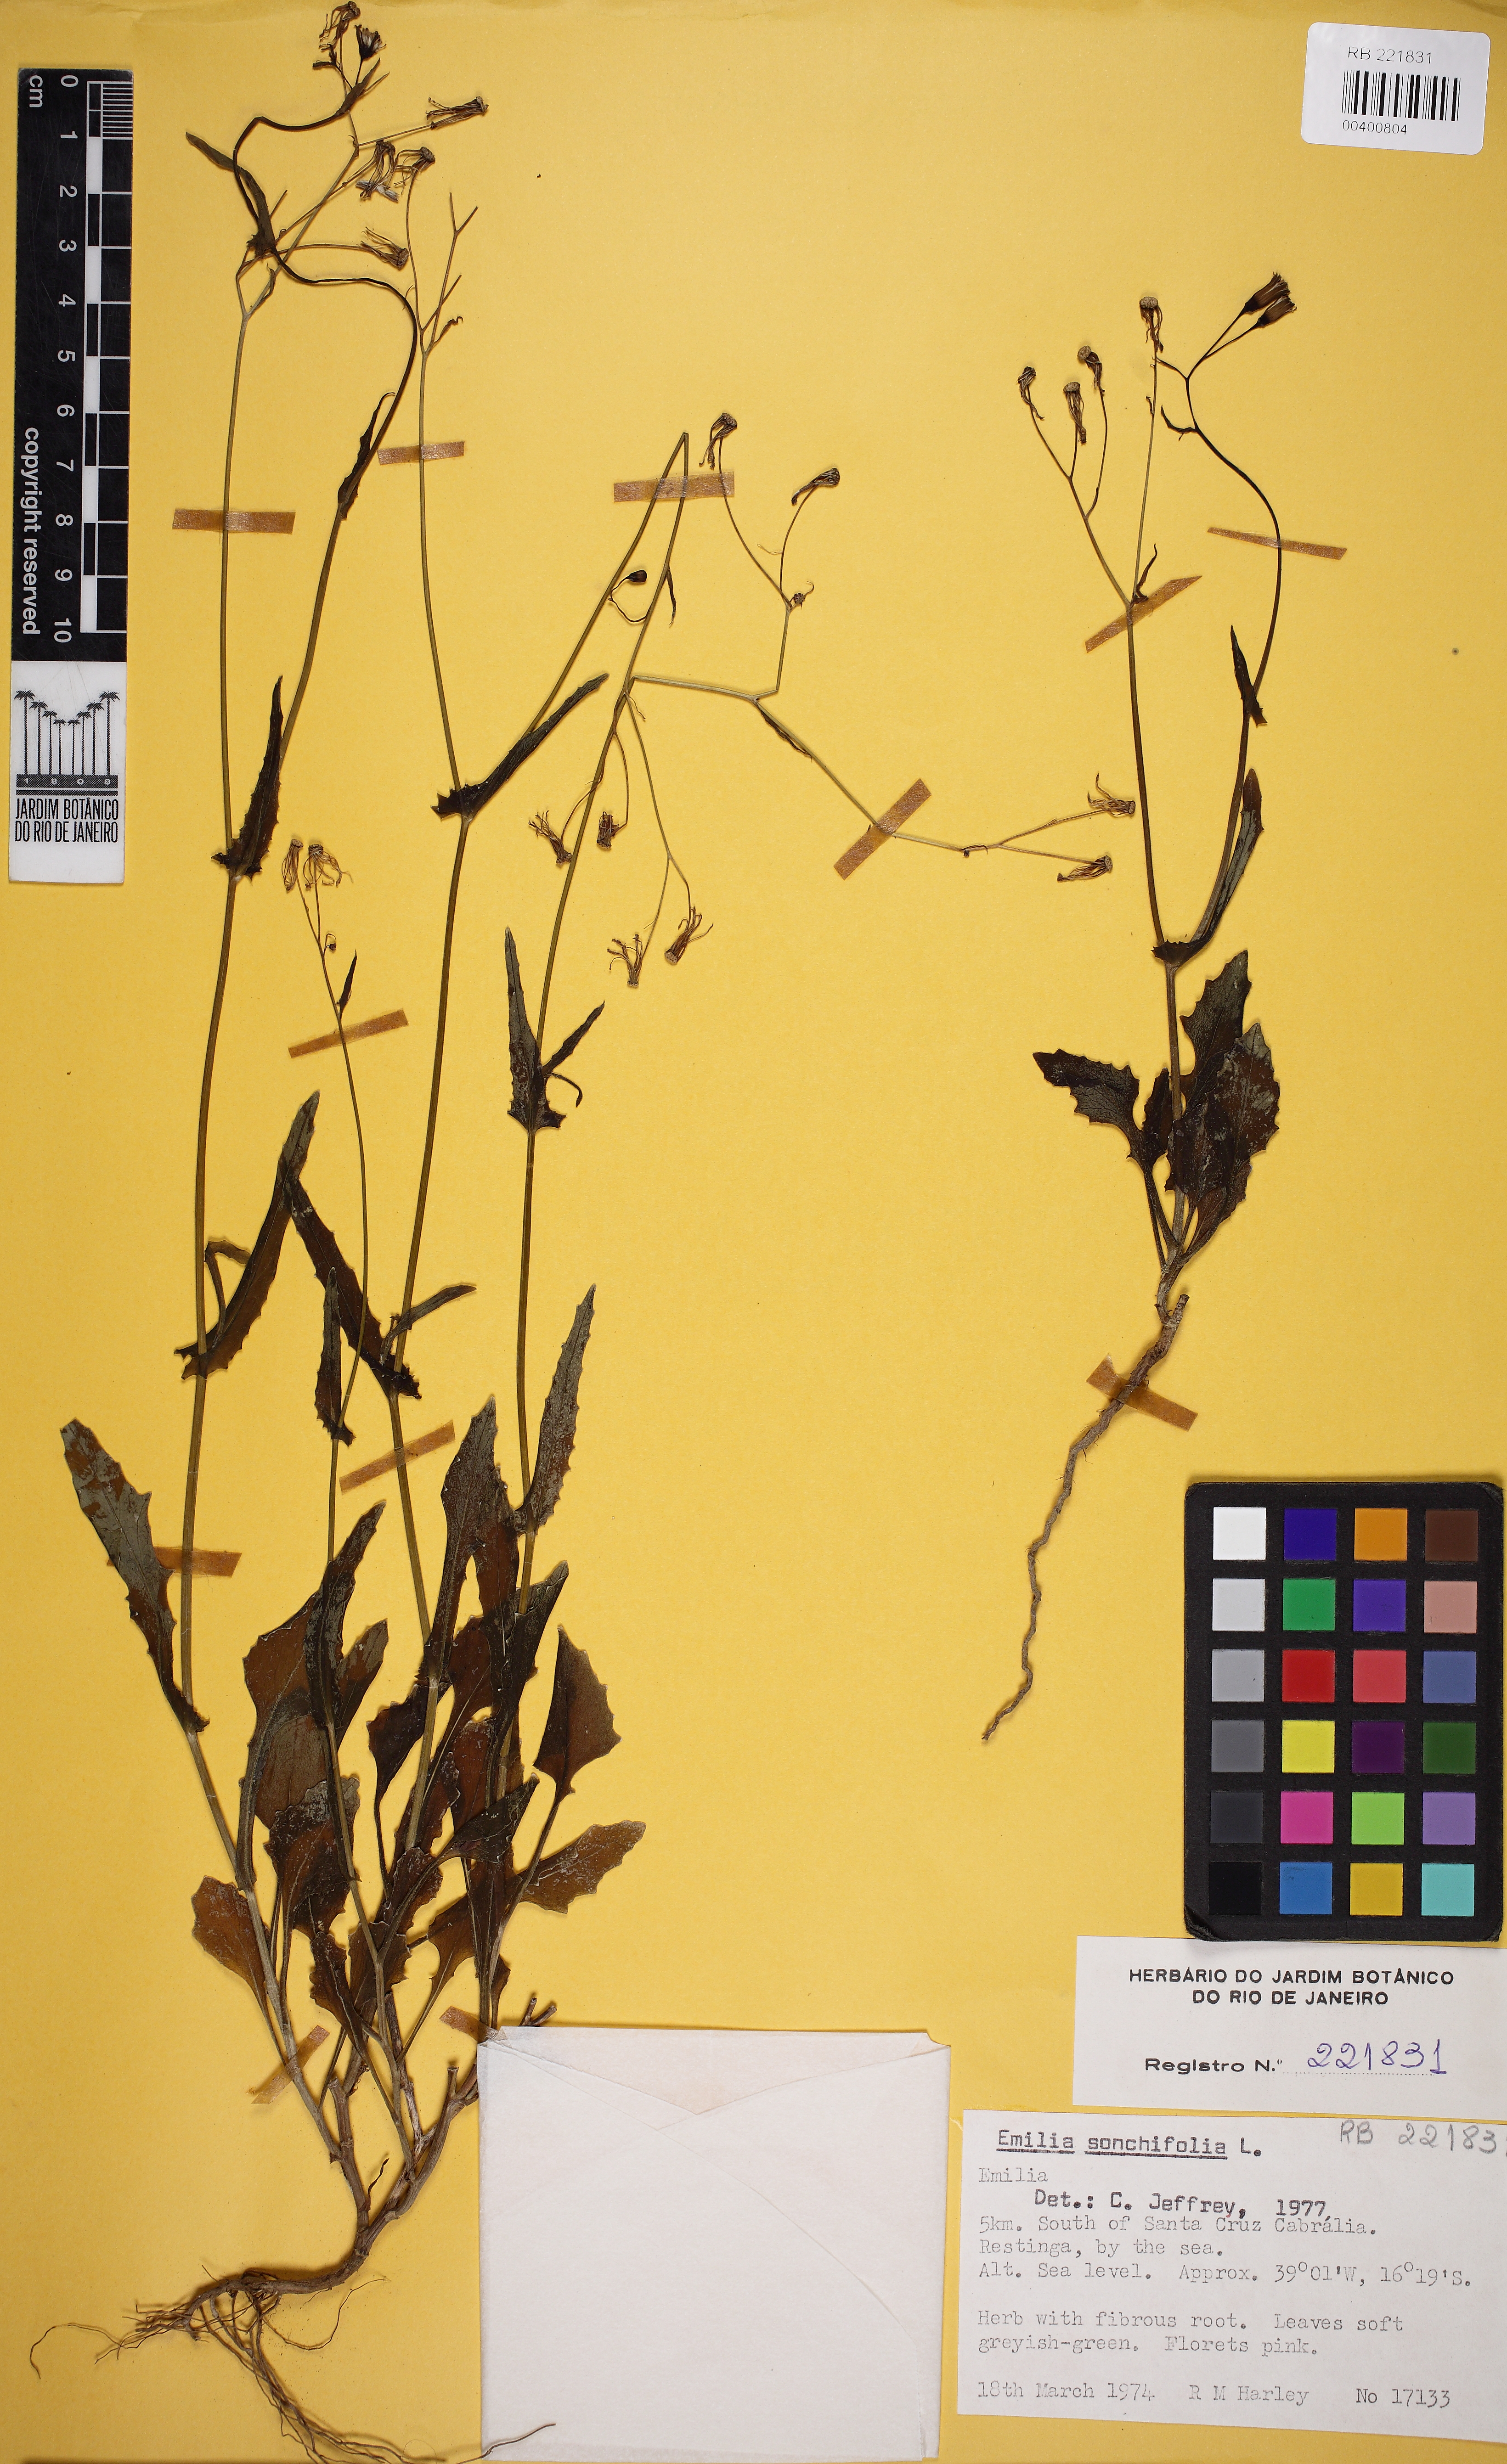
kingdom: Plantae
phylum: Tracheophyta
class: Magnoliopsida
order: Asterales
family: Asteraceae
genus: Emilia
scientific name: Emilia sonchifolia
